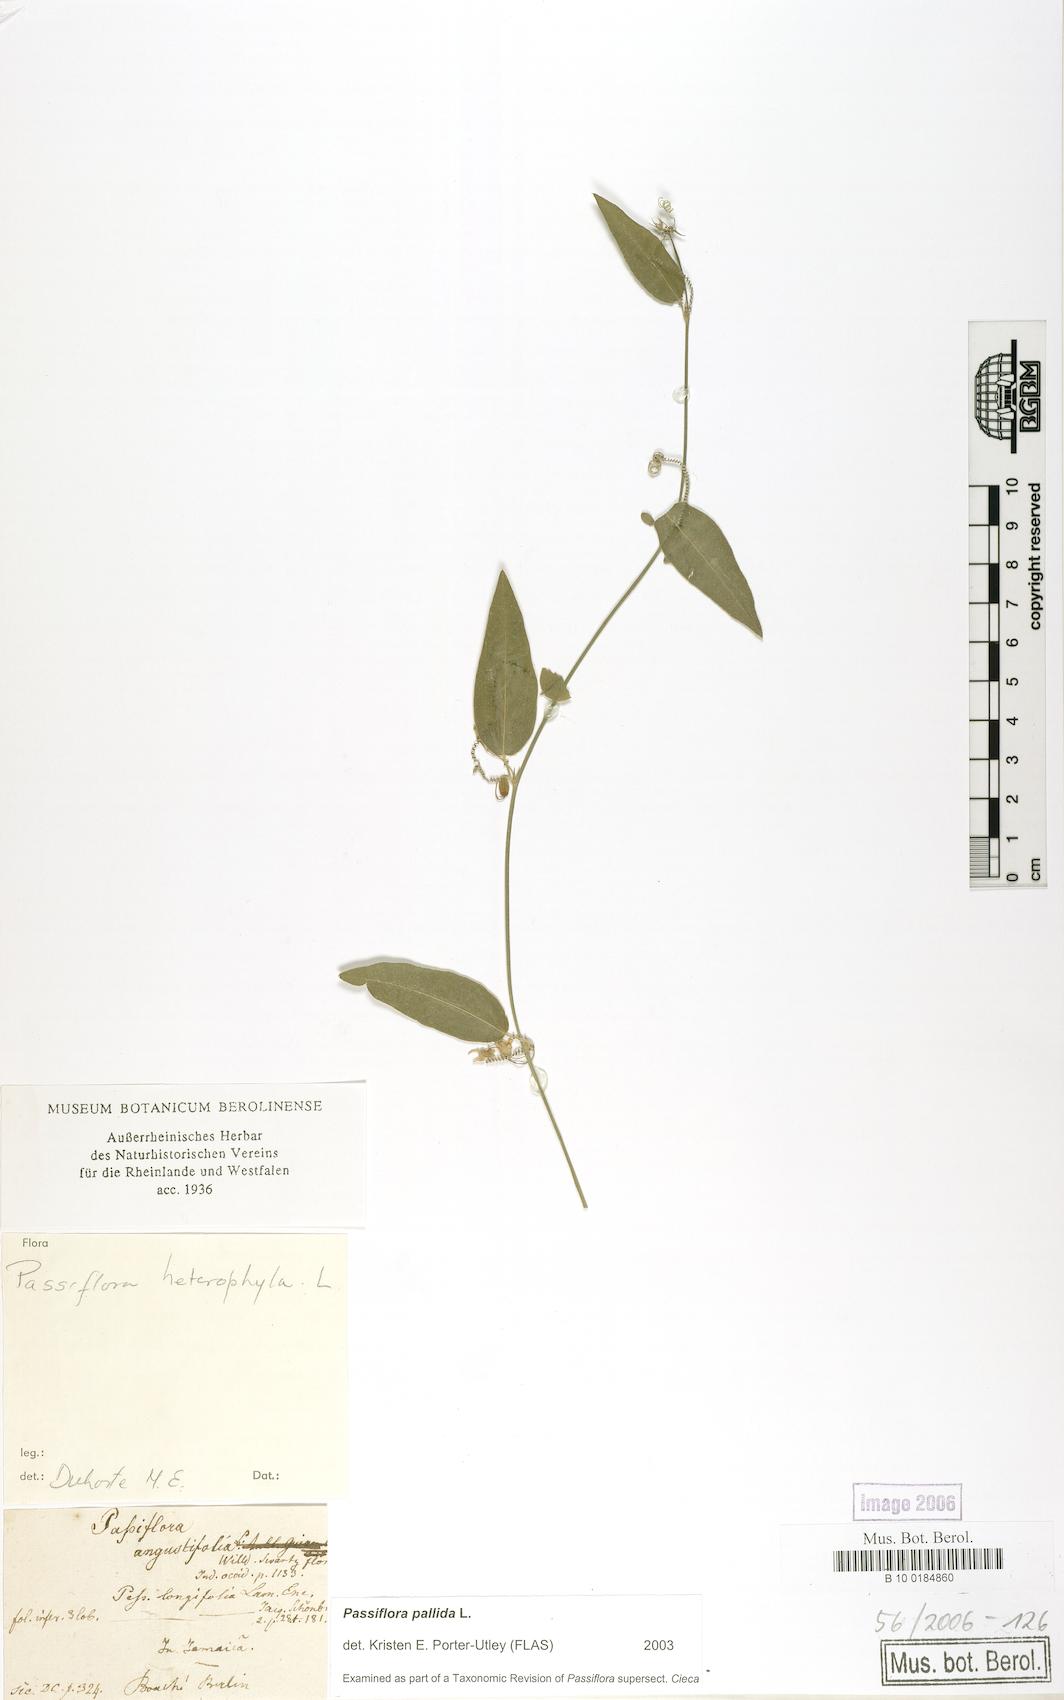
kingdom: Plantae
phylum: Tracheophyta
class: Magnoliopsida
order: Malpighiales
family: Passifloraceae
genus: Passiflora
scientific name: Passiflora pallida
